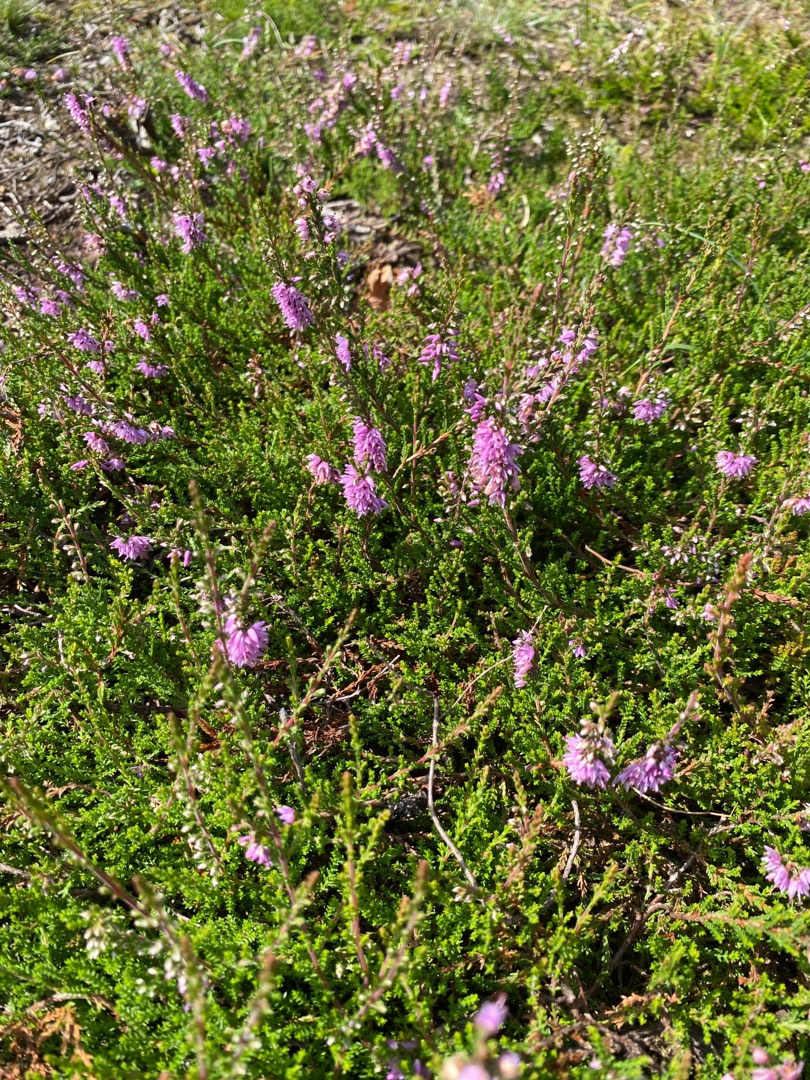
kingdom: Plantae
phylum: Tracheophyta
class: Magnoliopsida
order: Ericales
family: Ericaceae
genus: Calluna
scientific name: Calluna vulgaris
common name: Hedelyng
